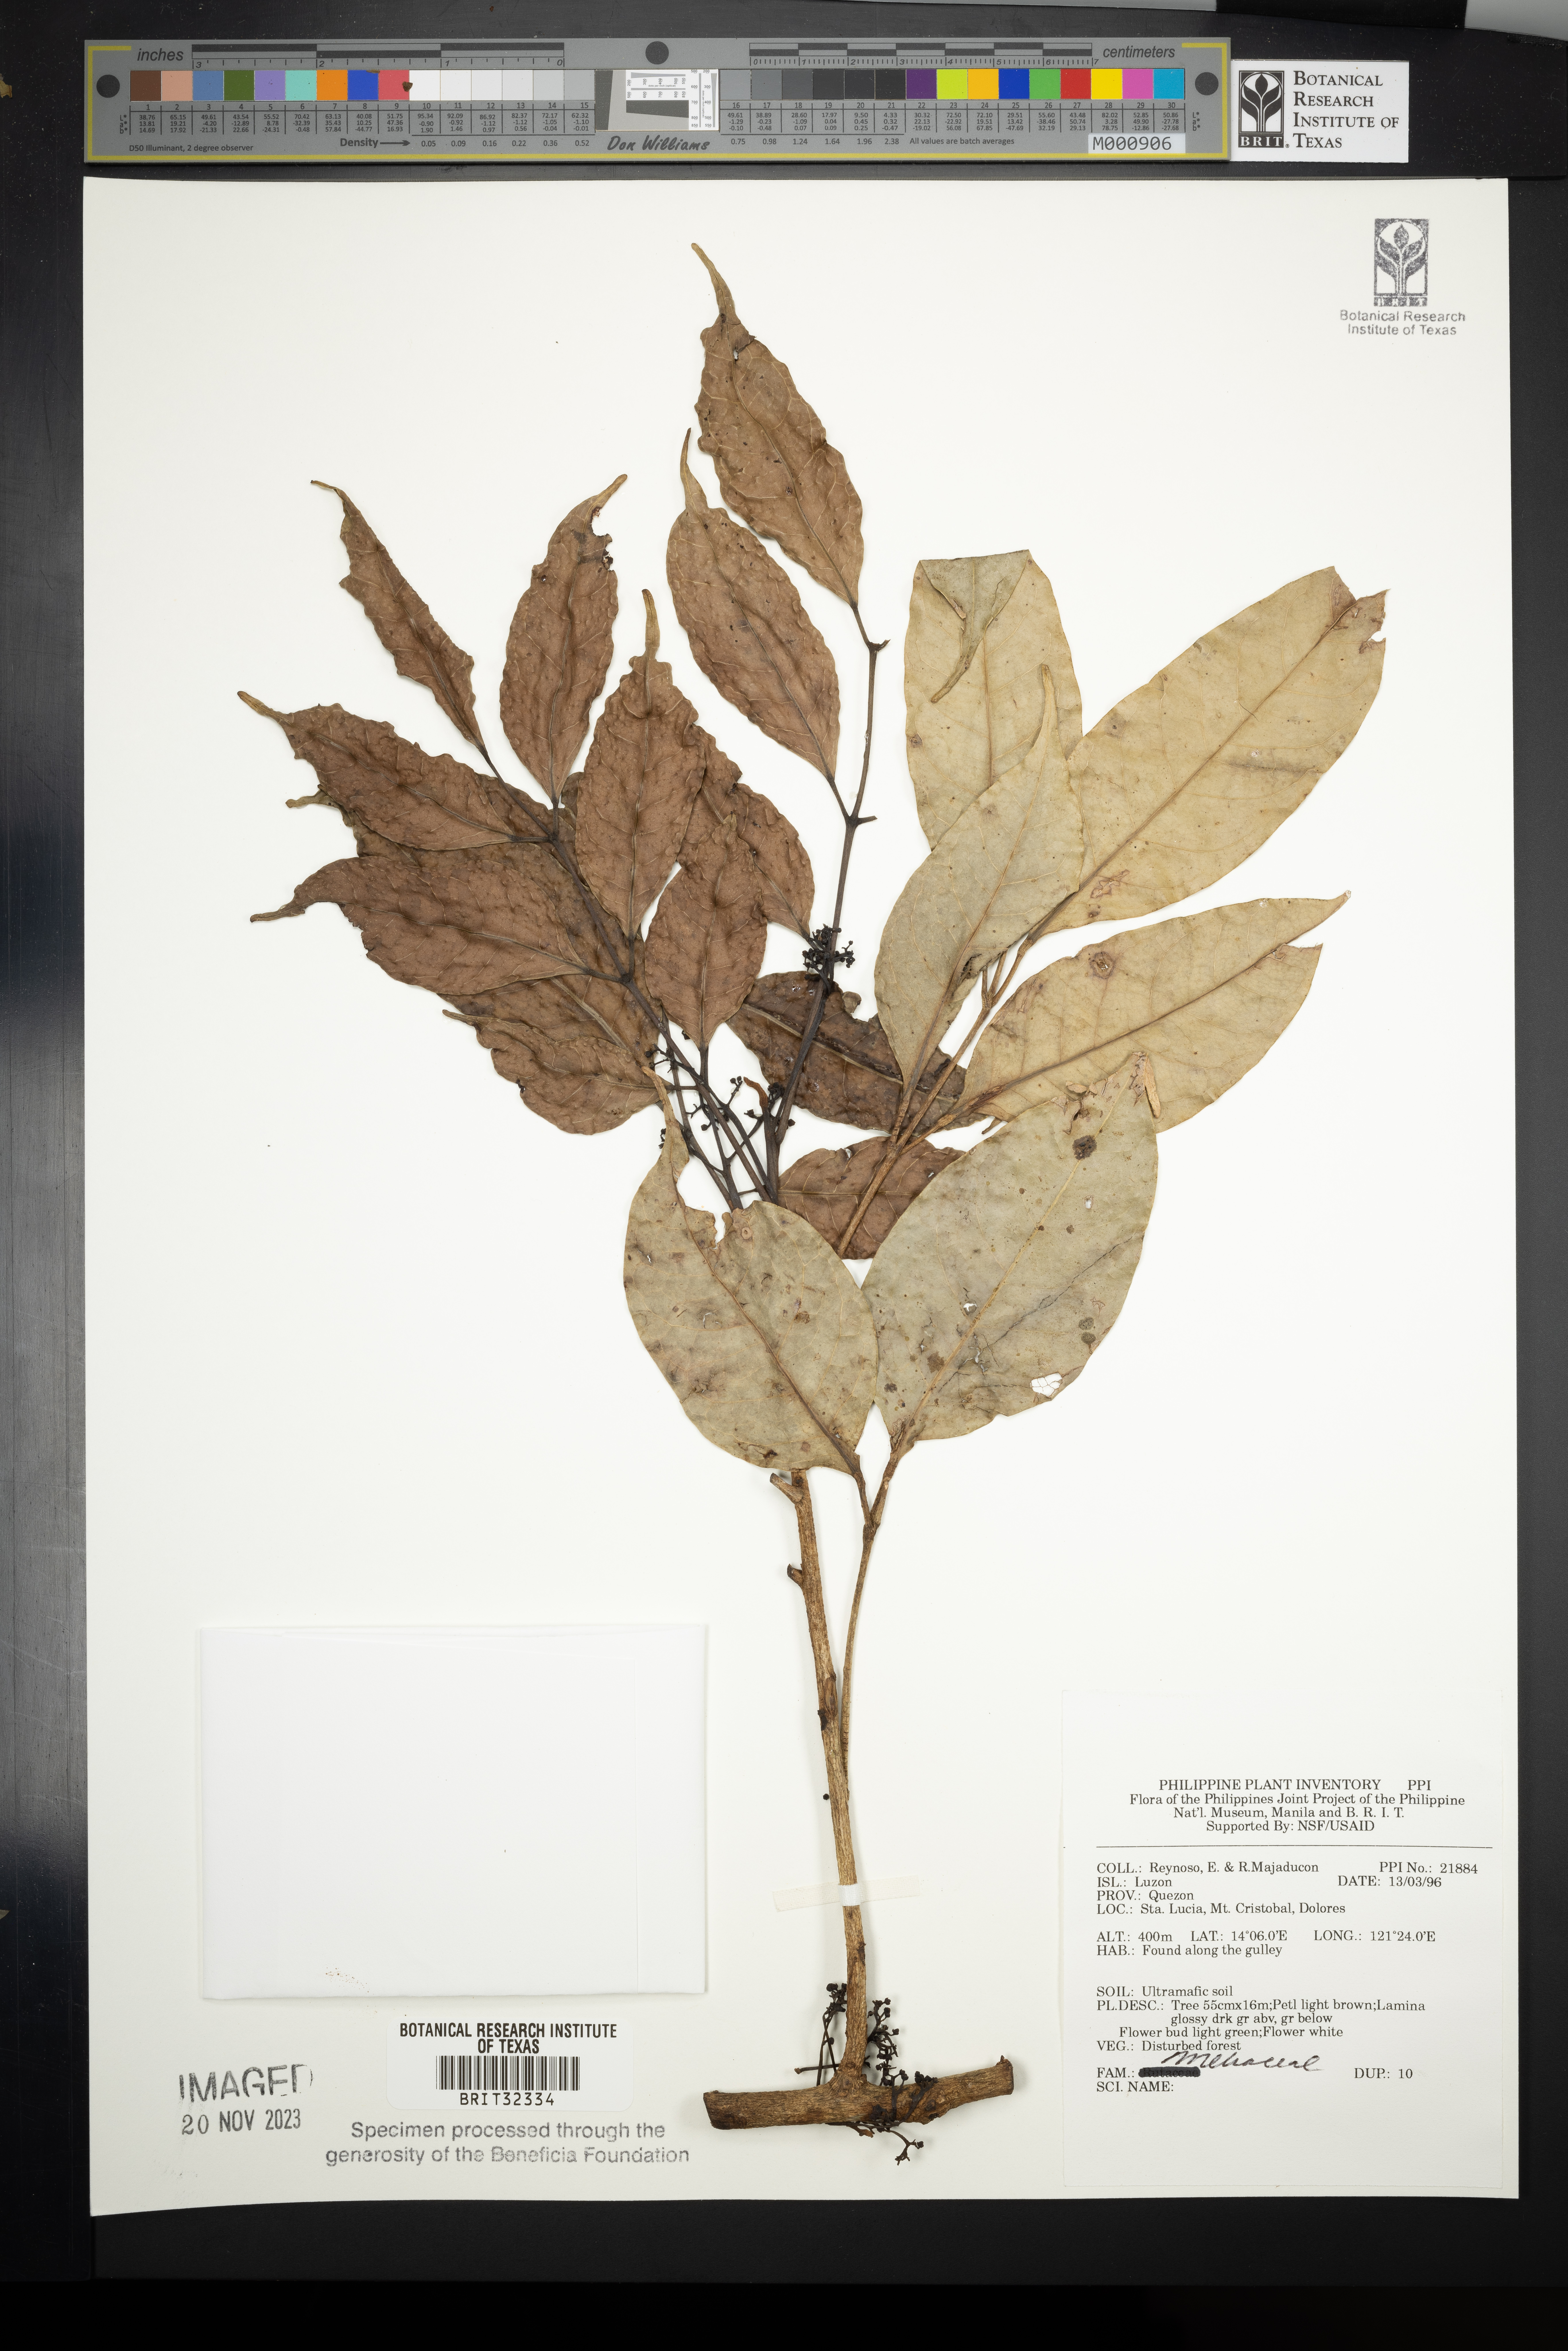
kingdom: Plantae
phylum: Tracheophyta
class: Magnoliopsida
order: Sapindales
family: Meliaceae
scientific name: Meliaceae
